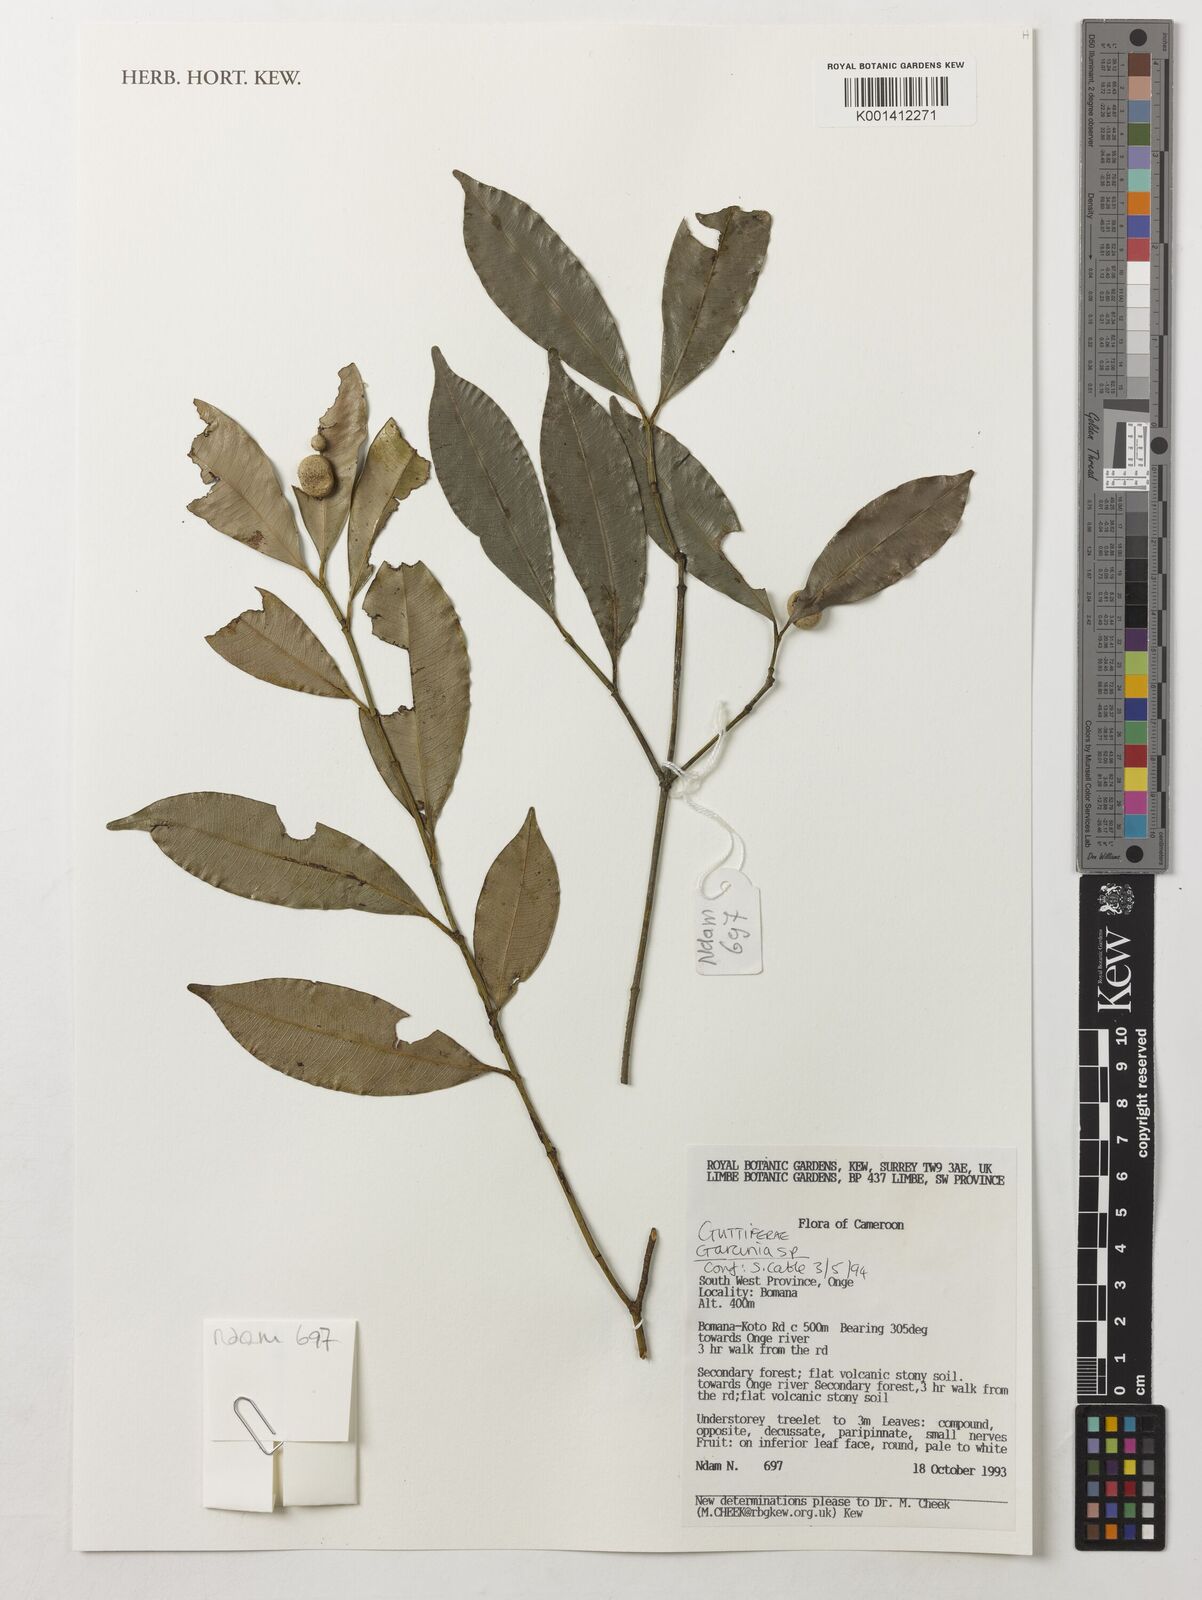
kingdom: Plantae
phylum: Tracheophyta
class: Magnoliopsida
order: Malpighiales
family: Clusiaceae
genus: Garcinia
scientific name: Garcinia
